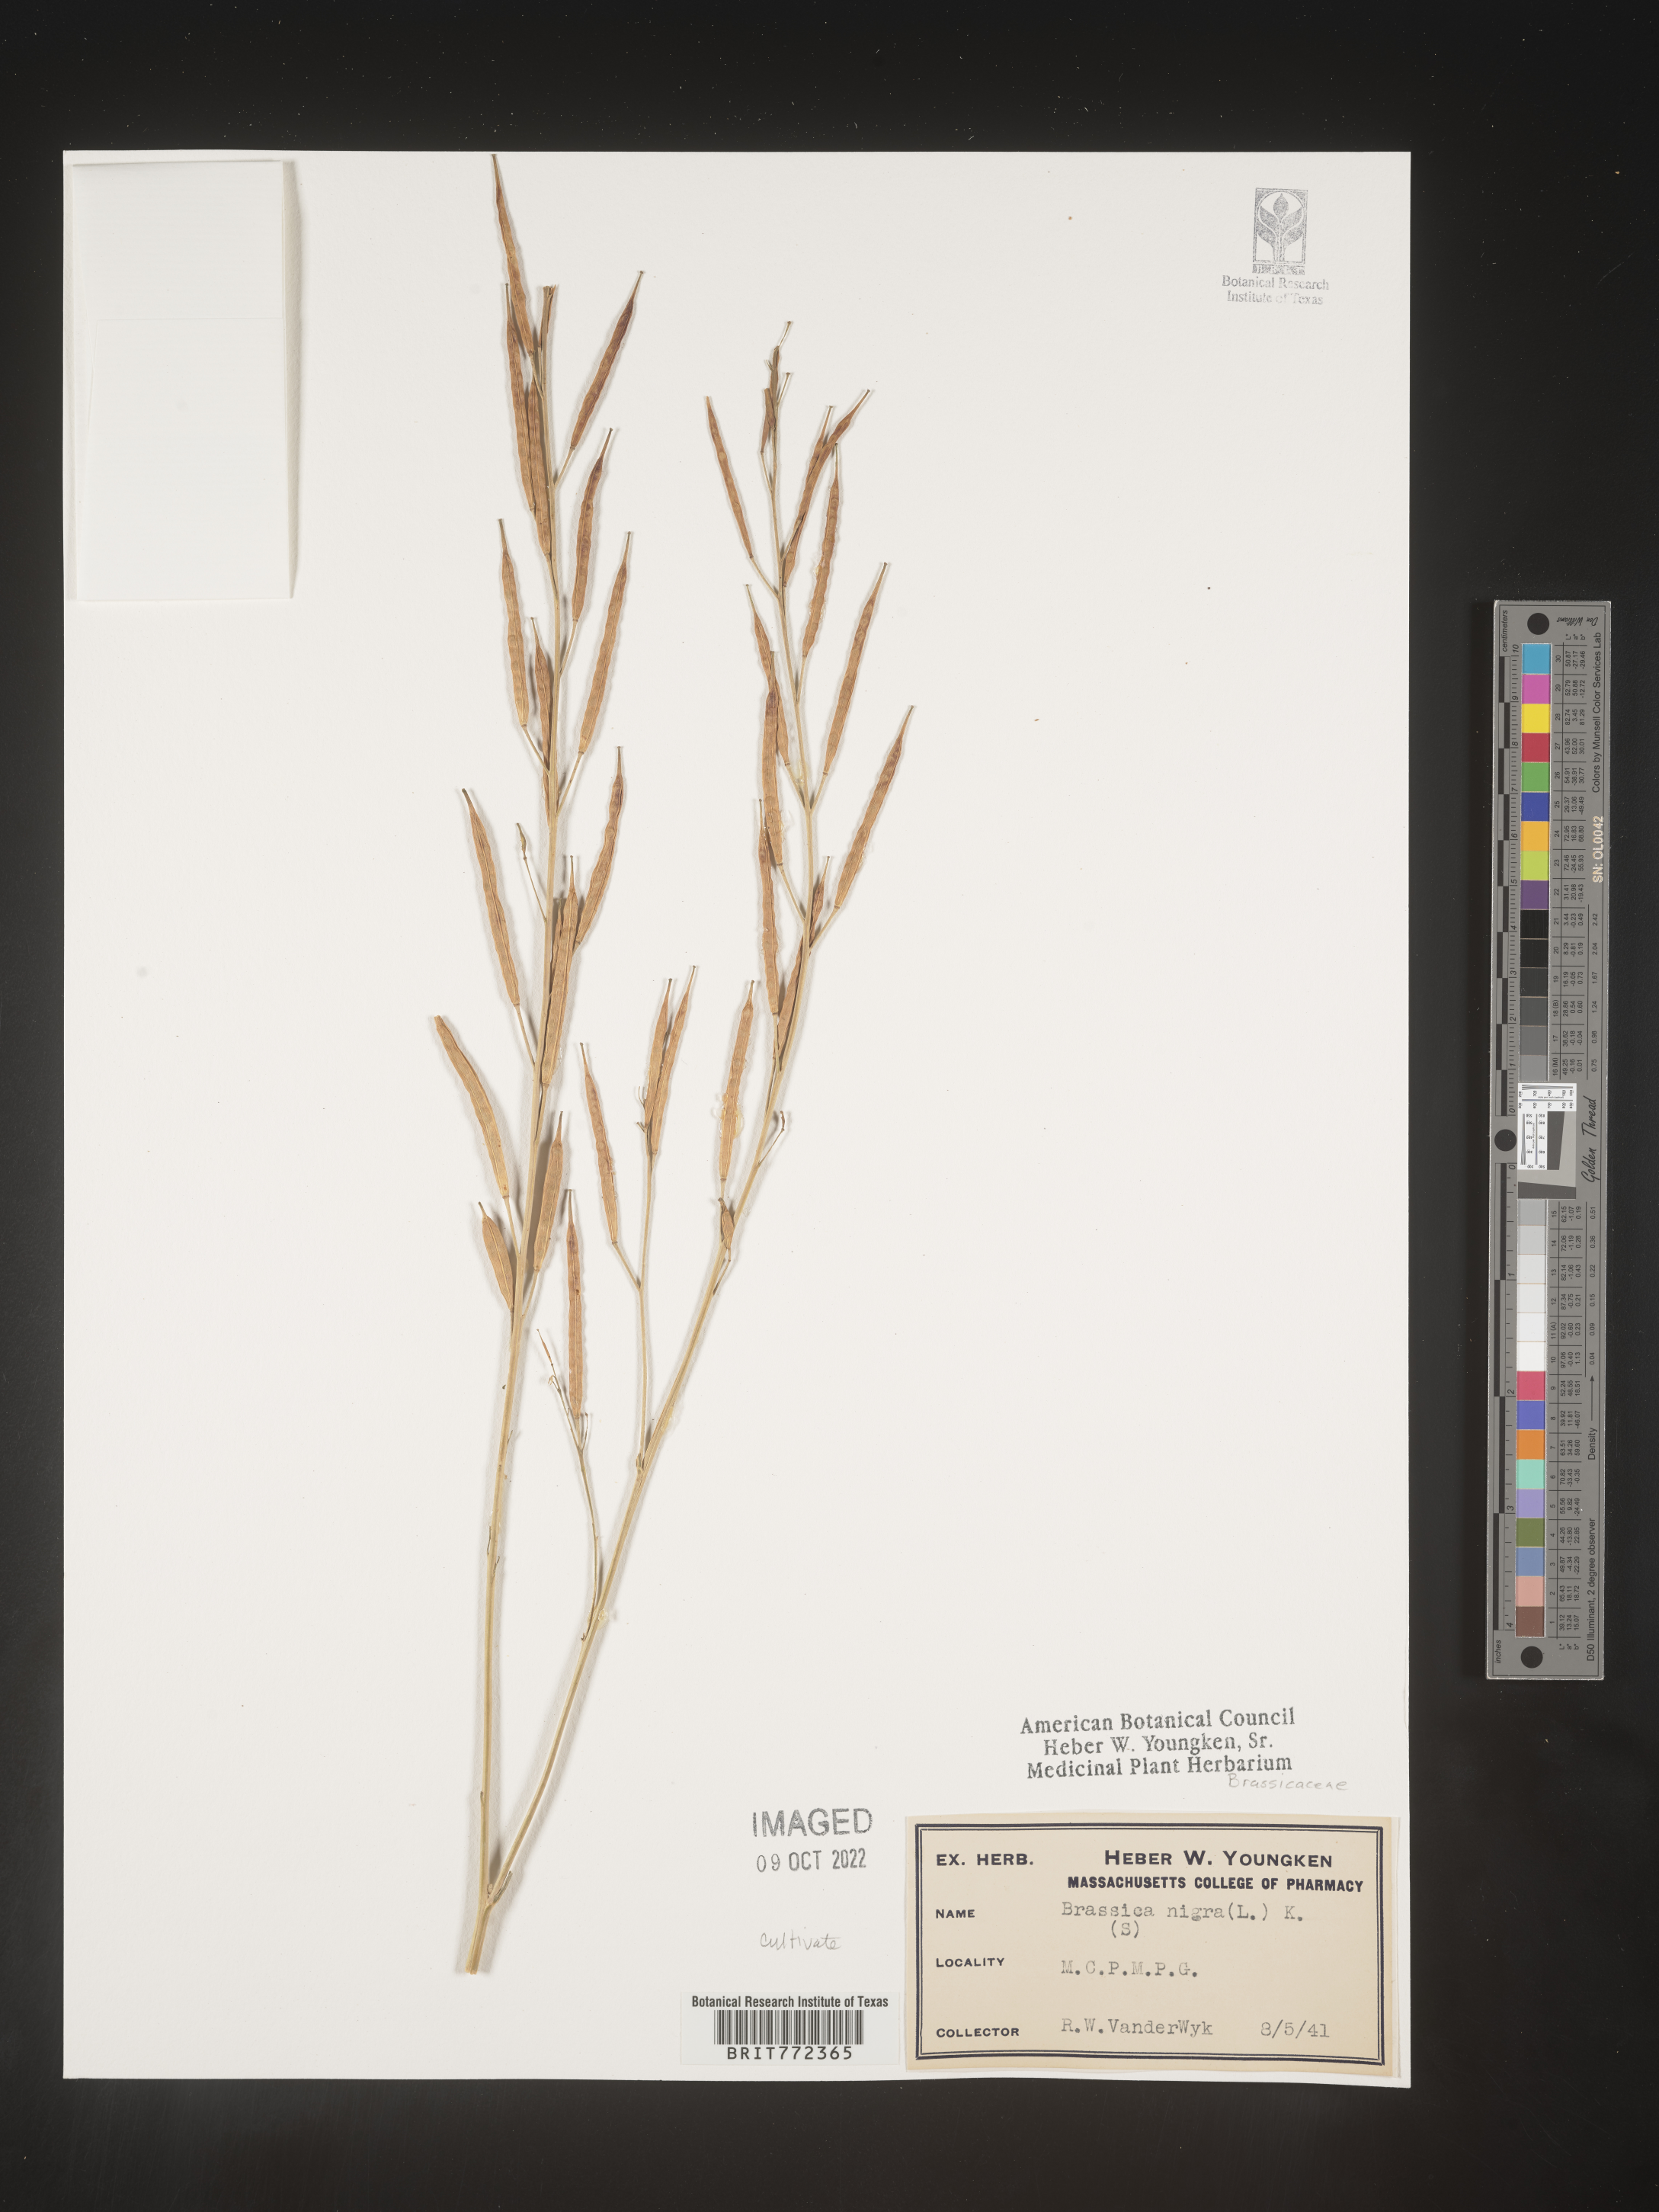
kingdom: Plantae
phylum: Tracheophyta
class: Magnoliopsida
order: Brassicales
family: Brassicaceae
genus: Brassica
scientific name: Brassica
